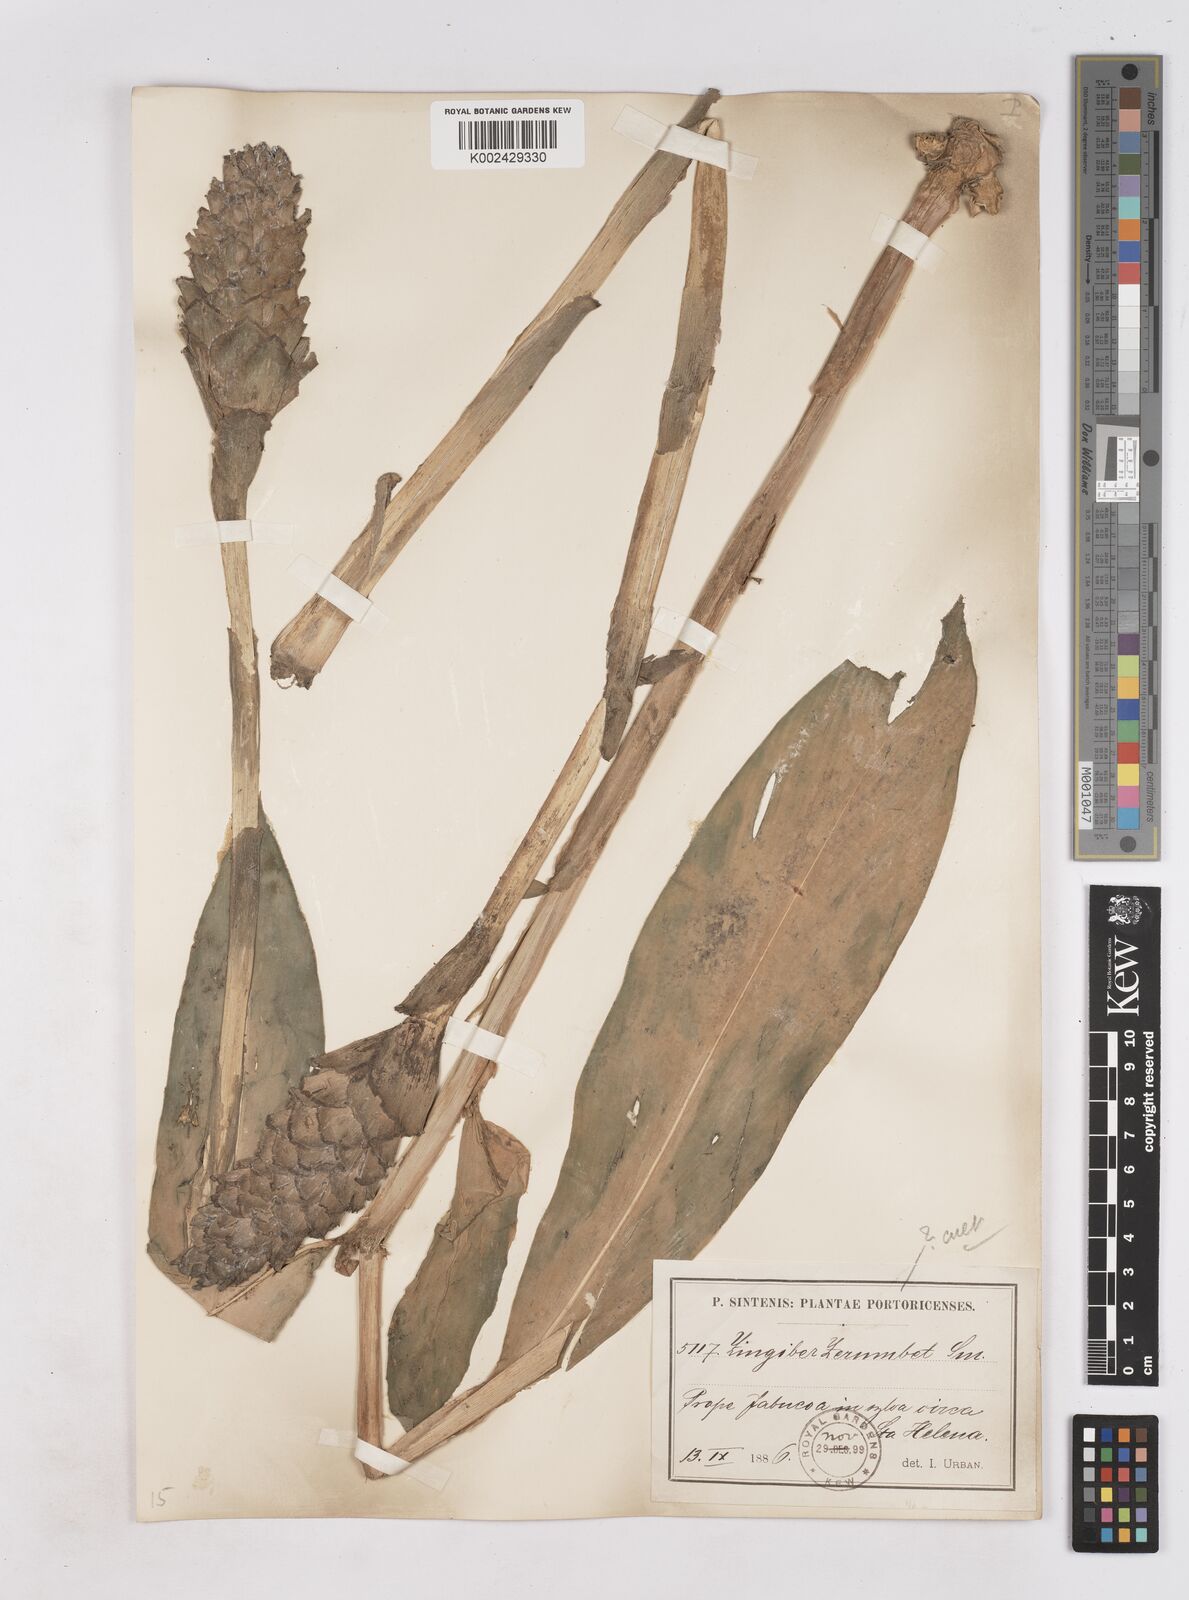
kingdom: Plantae
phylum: Tracheophyta
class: Liliopsida
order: Zingiberales
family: Zingiberaceae
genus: Zingiber
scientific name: Zingiber zerumbet
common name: Bitter ginger
